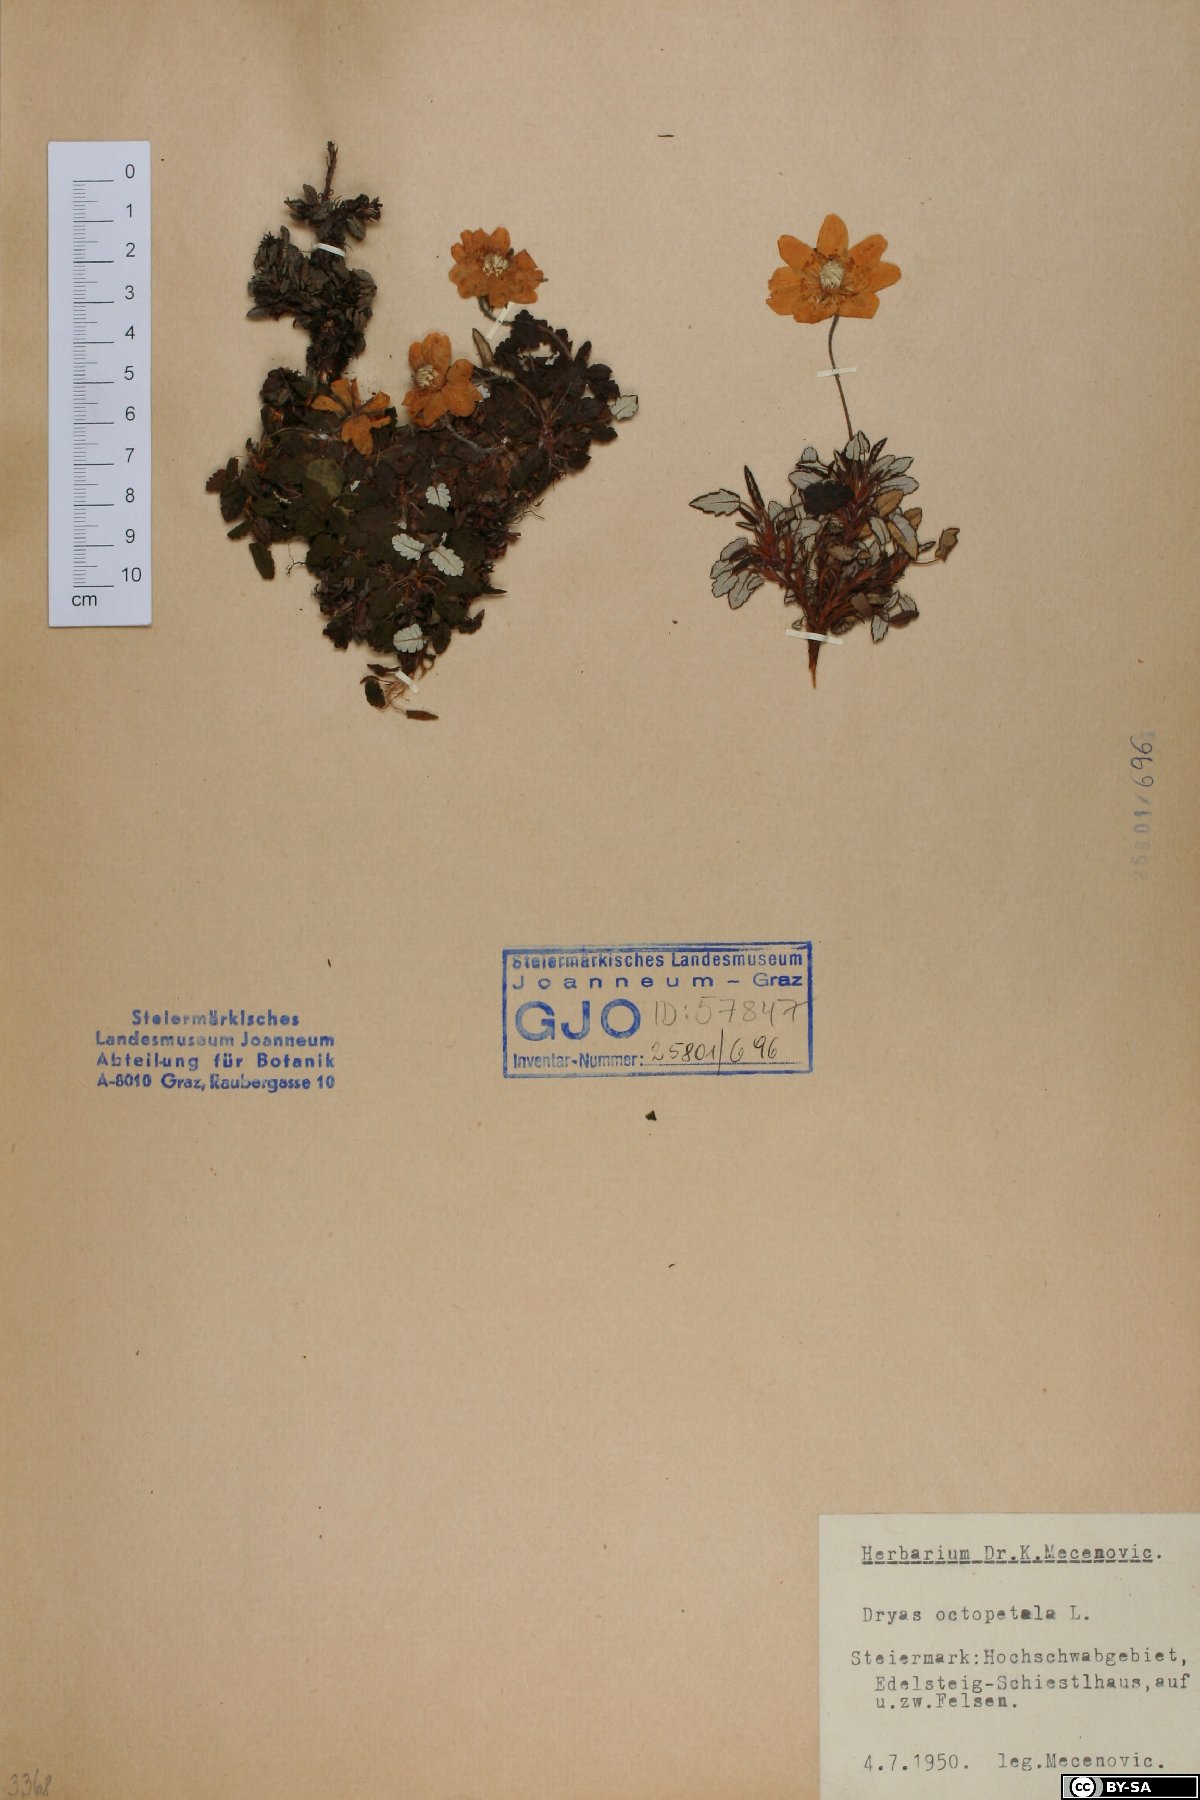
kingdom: Plantae
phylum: Tracheophyta
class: Magnoliopsida
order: Rosales
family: Rosaceae
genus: Dryas
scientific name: Dryas octopetala
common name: Eight-petal mountain-avens
